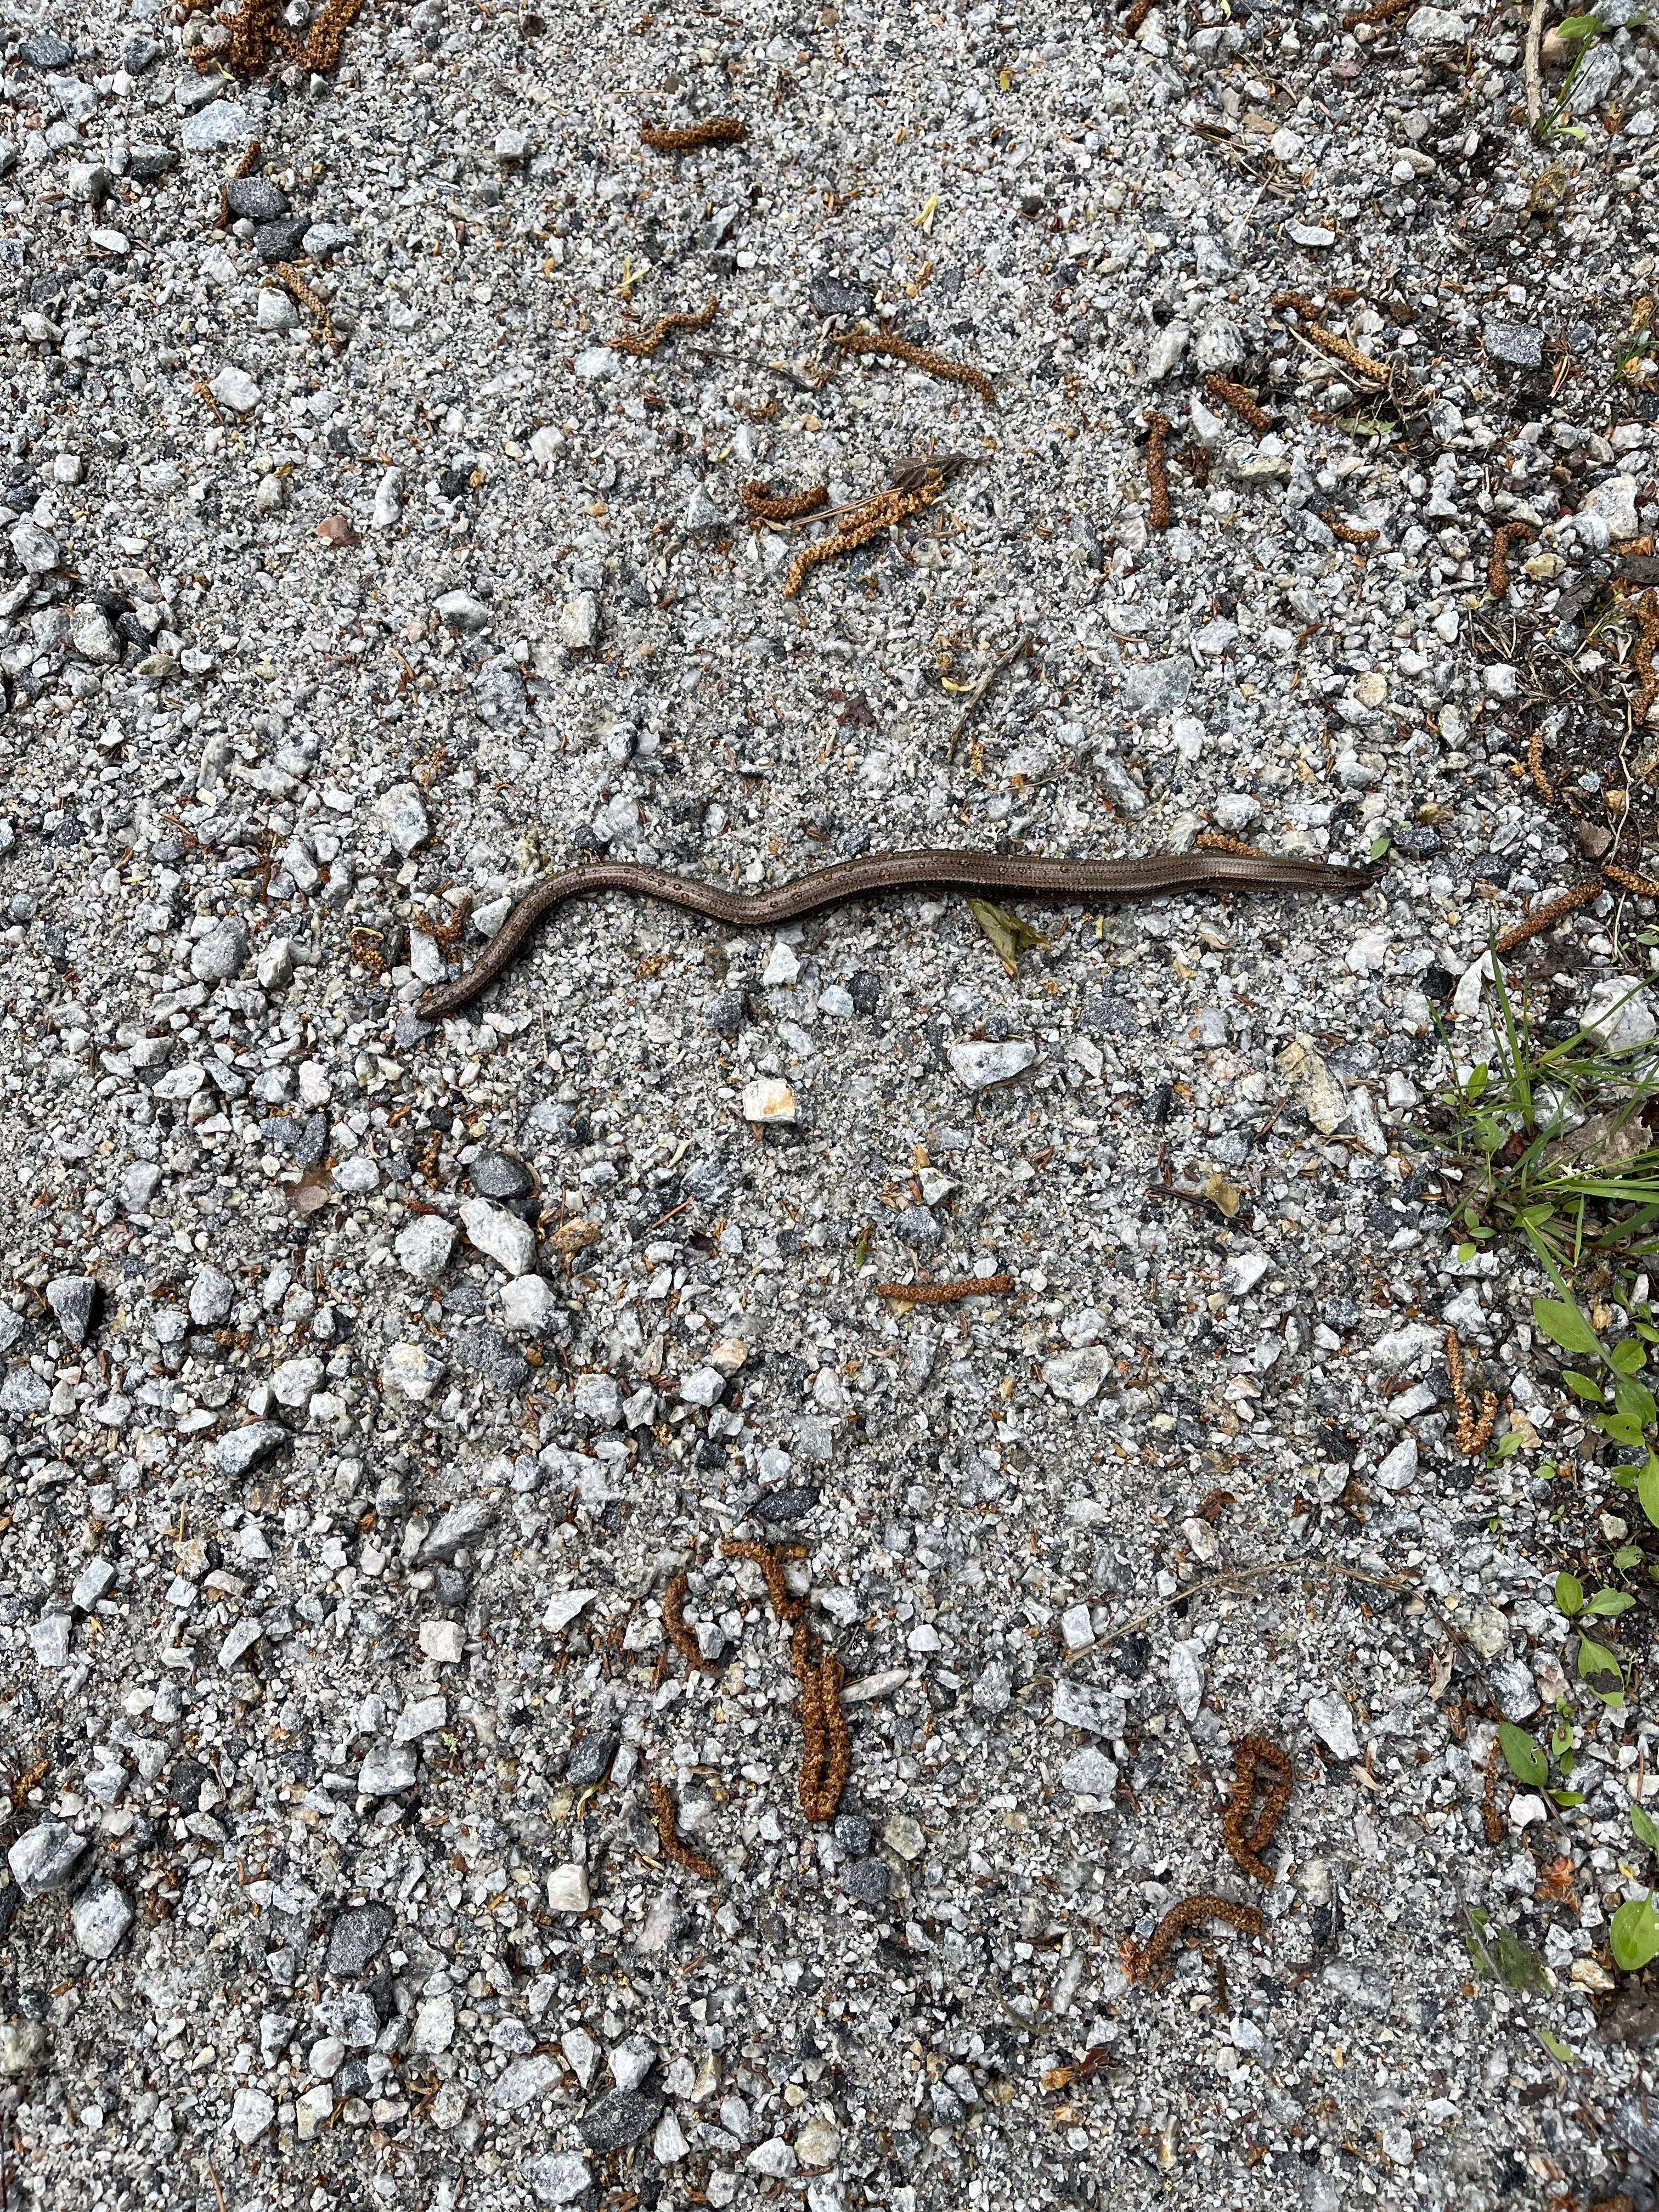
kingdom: Animalia
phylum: Chordata
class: Squamata
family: Anguidae
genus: Anguis
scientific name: Anguis colchica
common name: Slow worm
